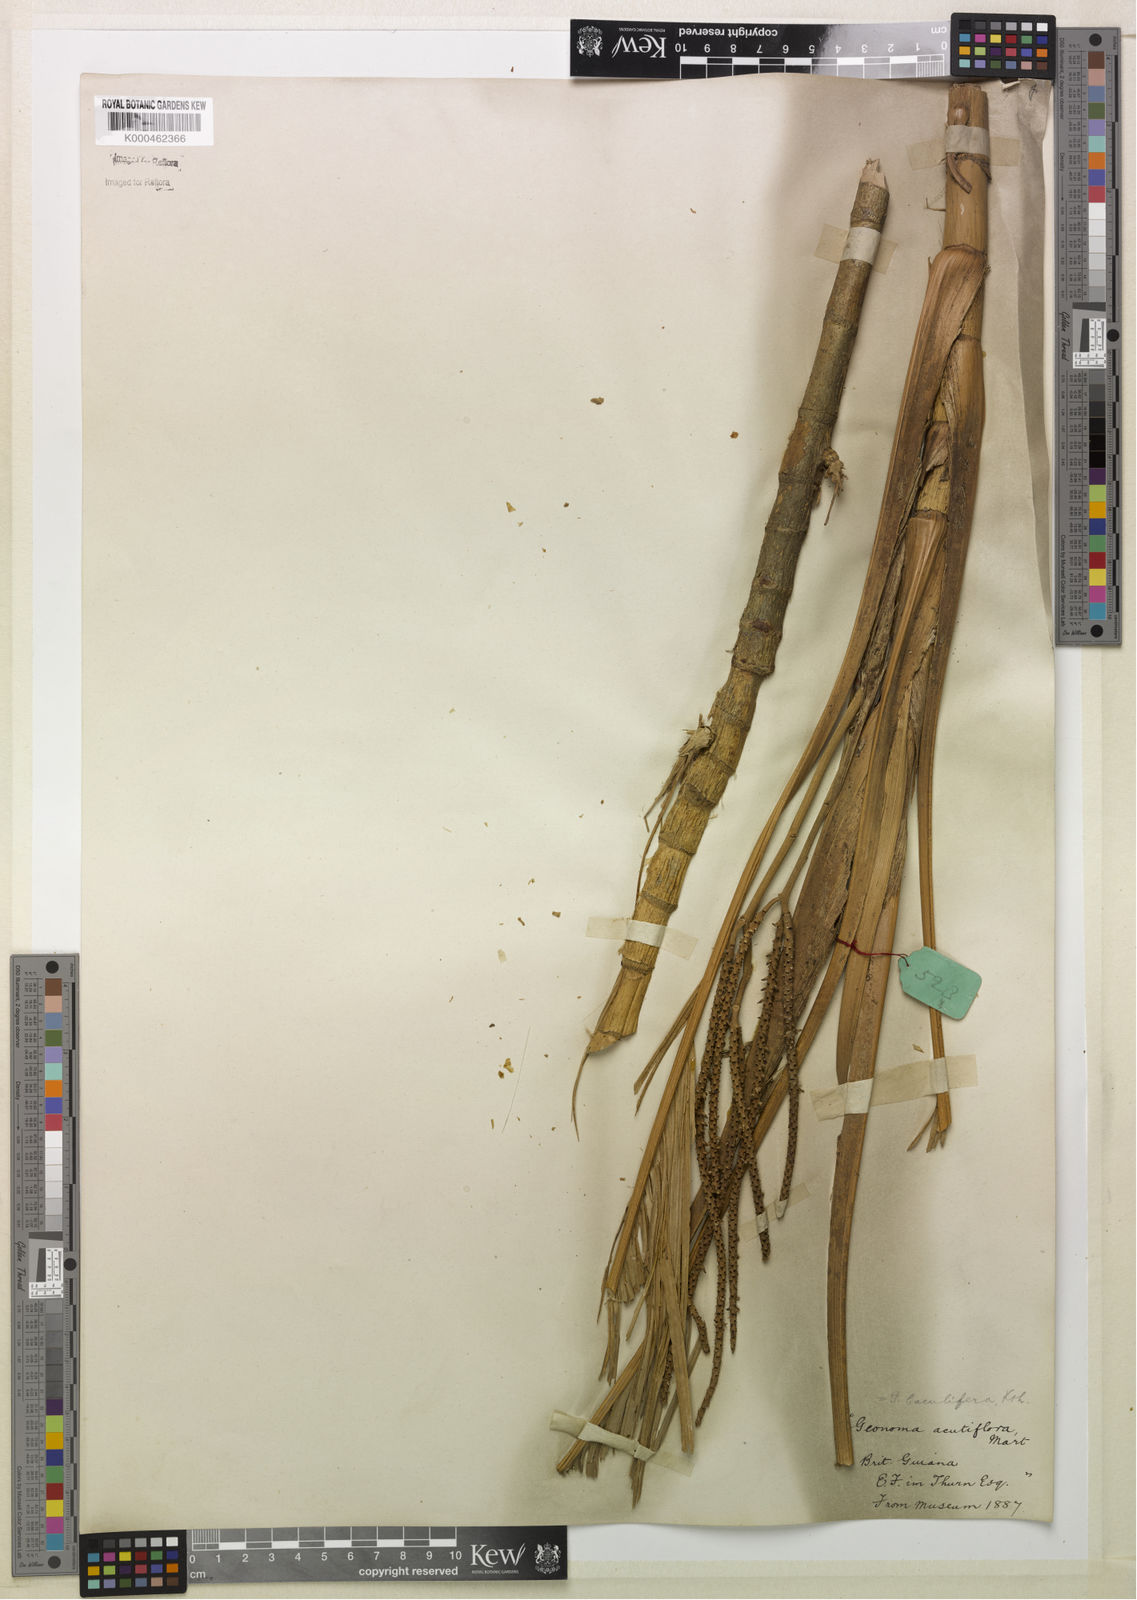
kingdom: Plantae
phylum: Tracheophyta
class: Liliopsida
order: Arecales
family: Arecaceae
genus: Geonoma
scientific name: Geonoma baculifera
